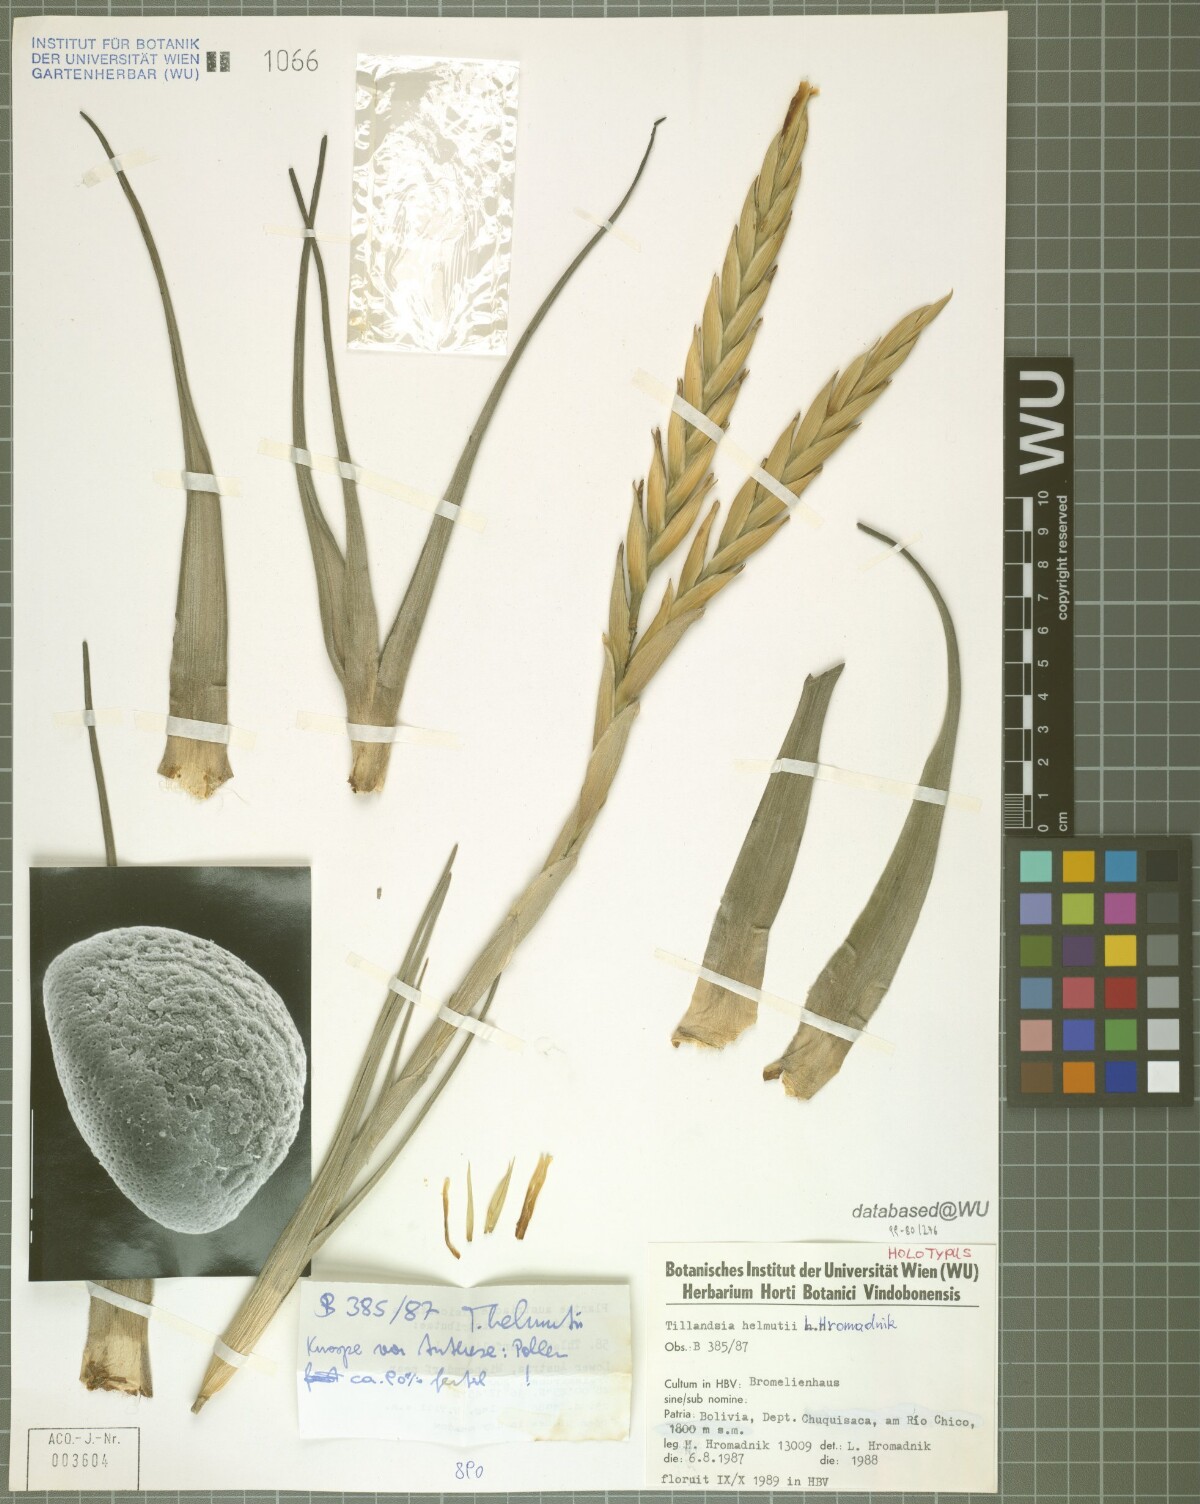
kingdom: Plantae
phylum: Tracheophyta
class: Liliopsida
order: Poales
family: Bromeliaceae
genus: Tillandsia
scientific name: Tillandsia helmutii
